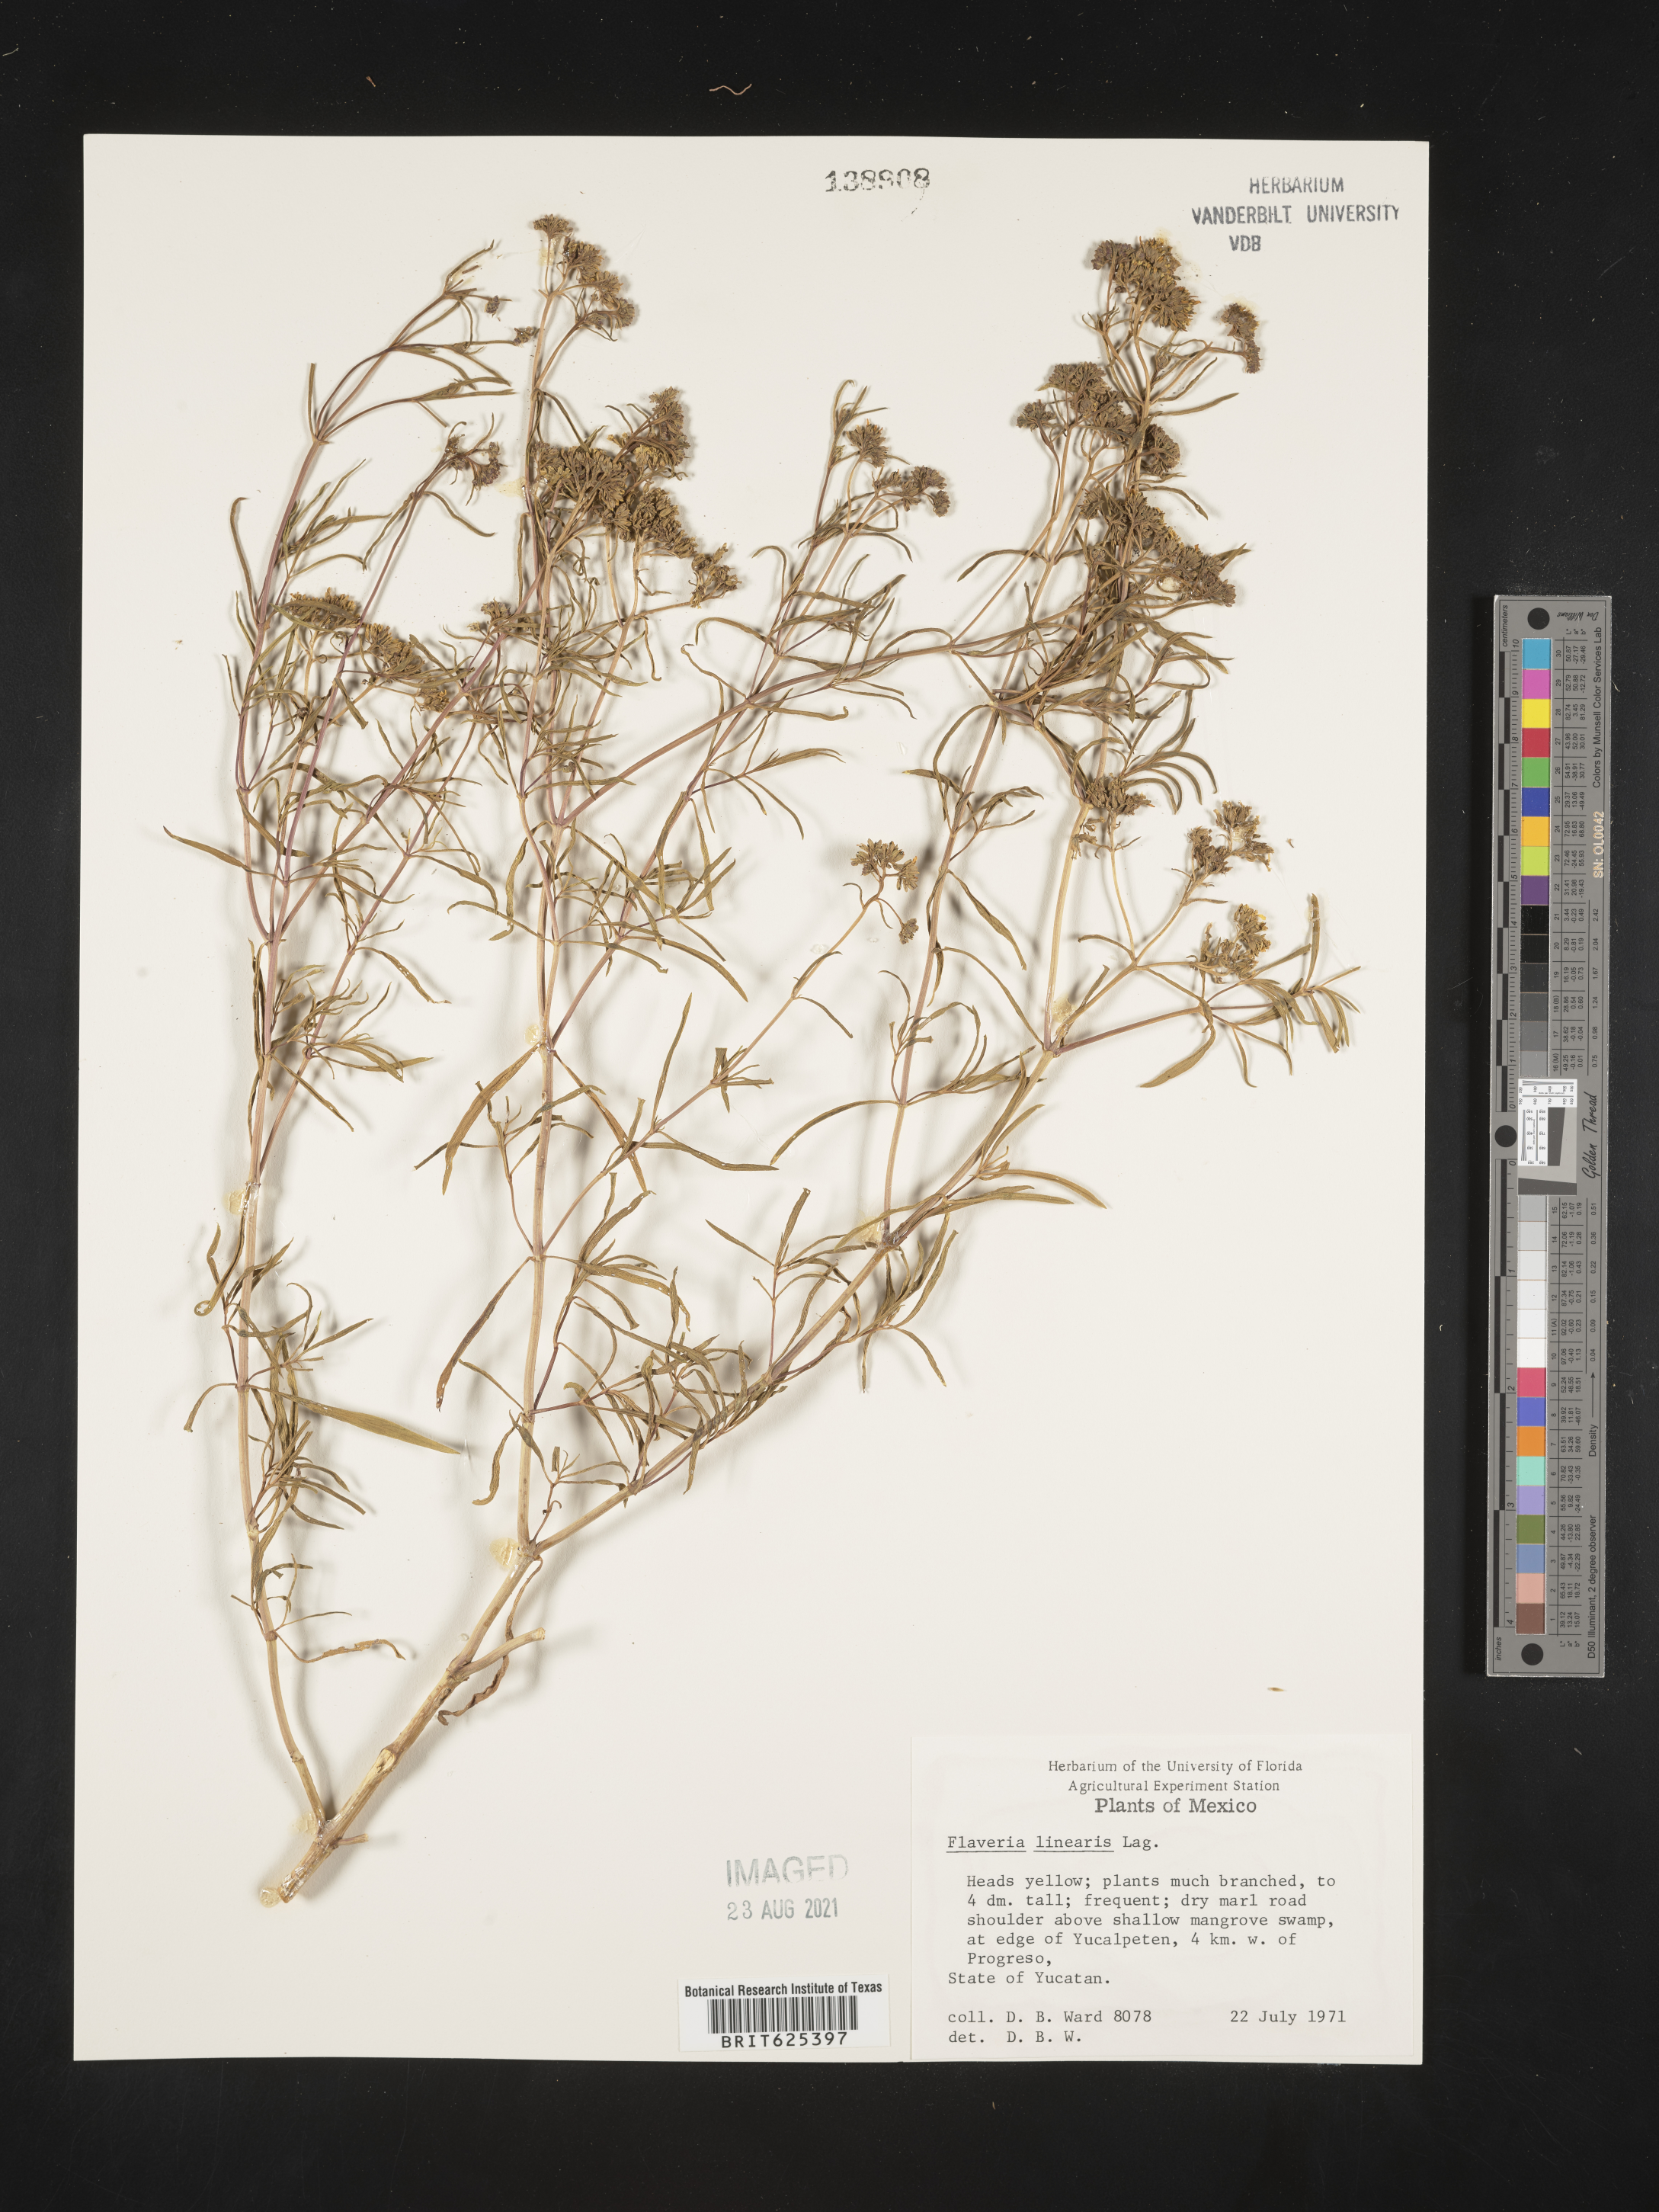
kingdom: Plantae
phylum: Tracheophyta
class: Magnoliopsida
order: Asterales
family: Asteraceae
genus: Flaveria
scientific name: Flaveria
